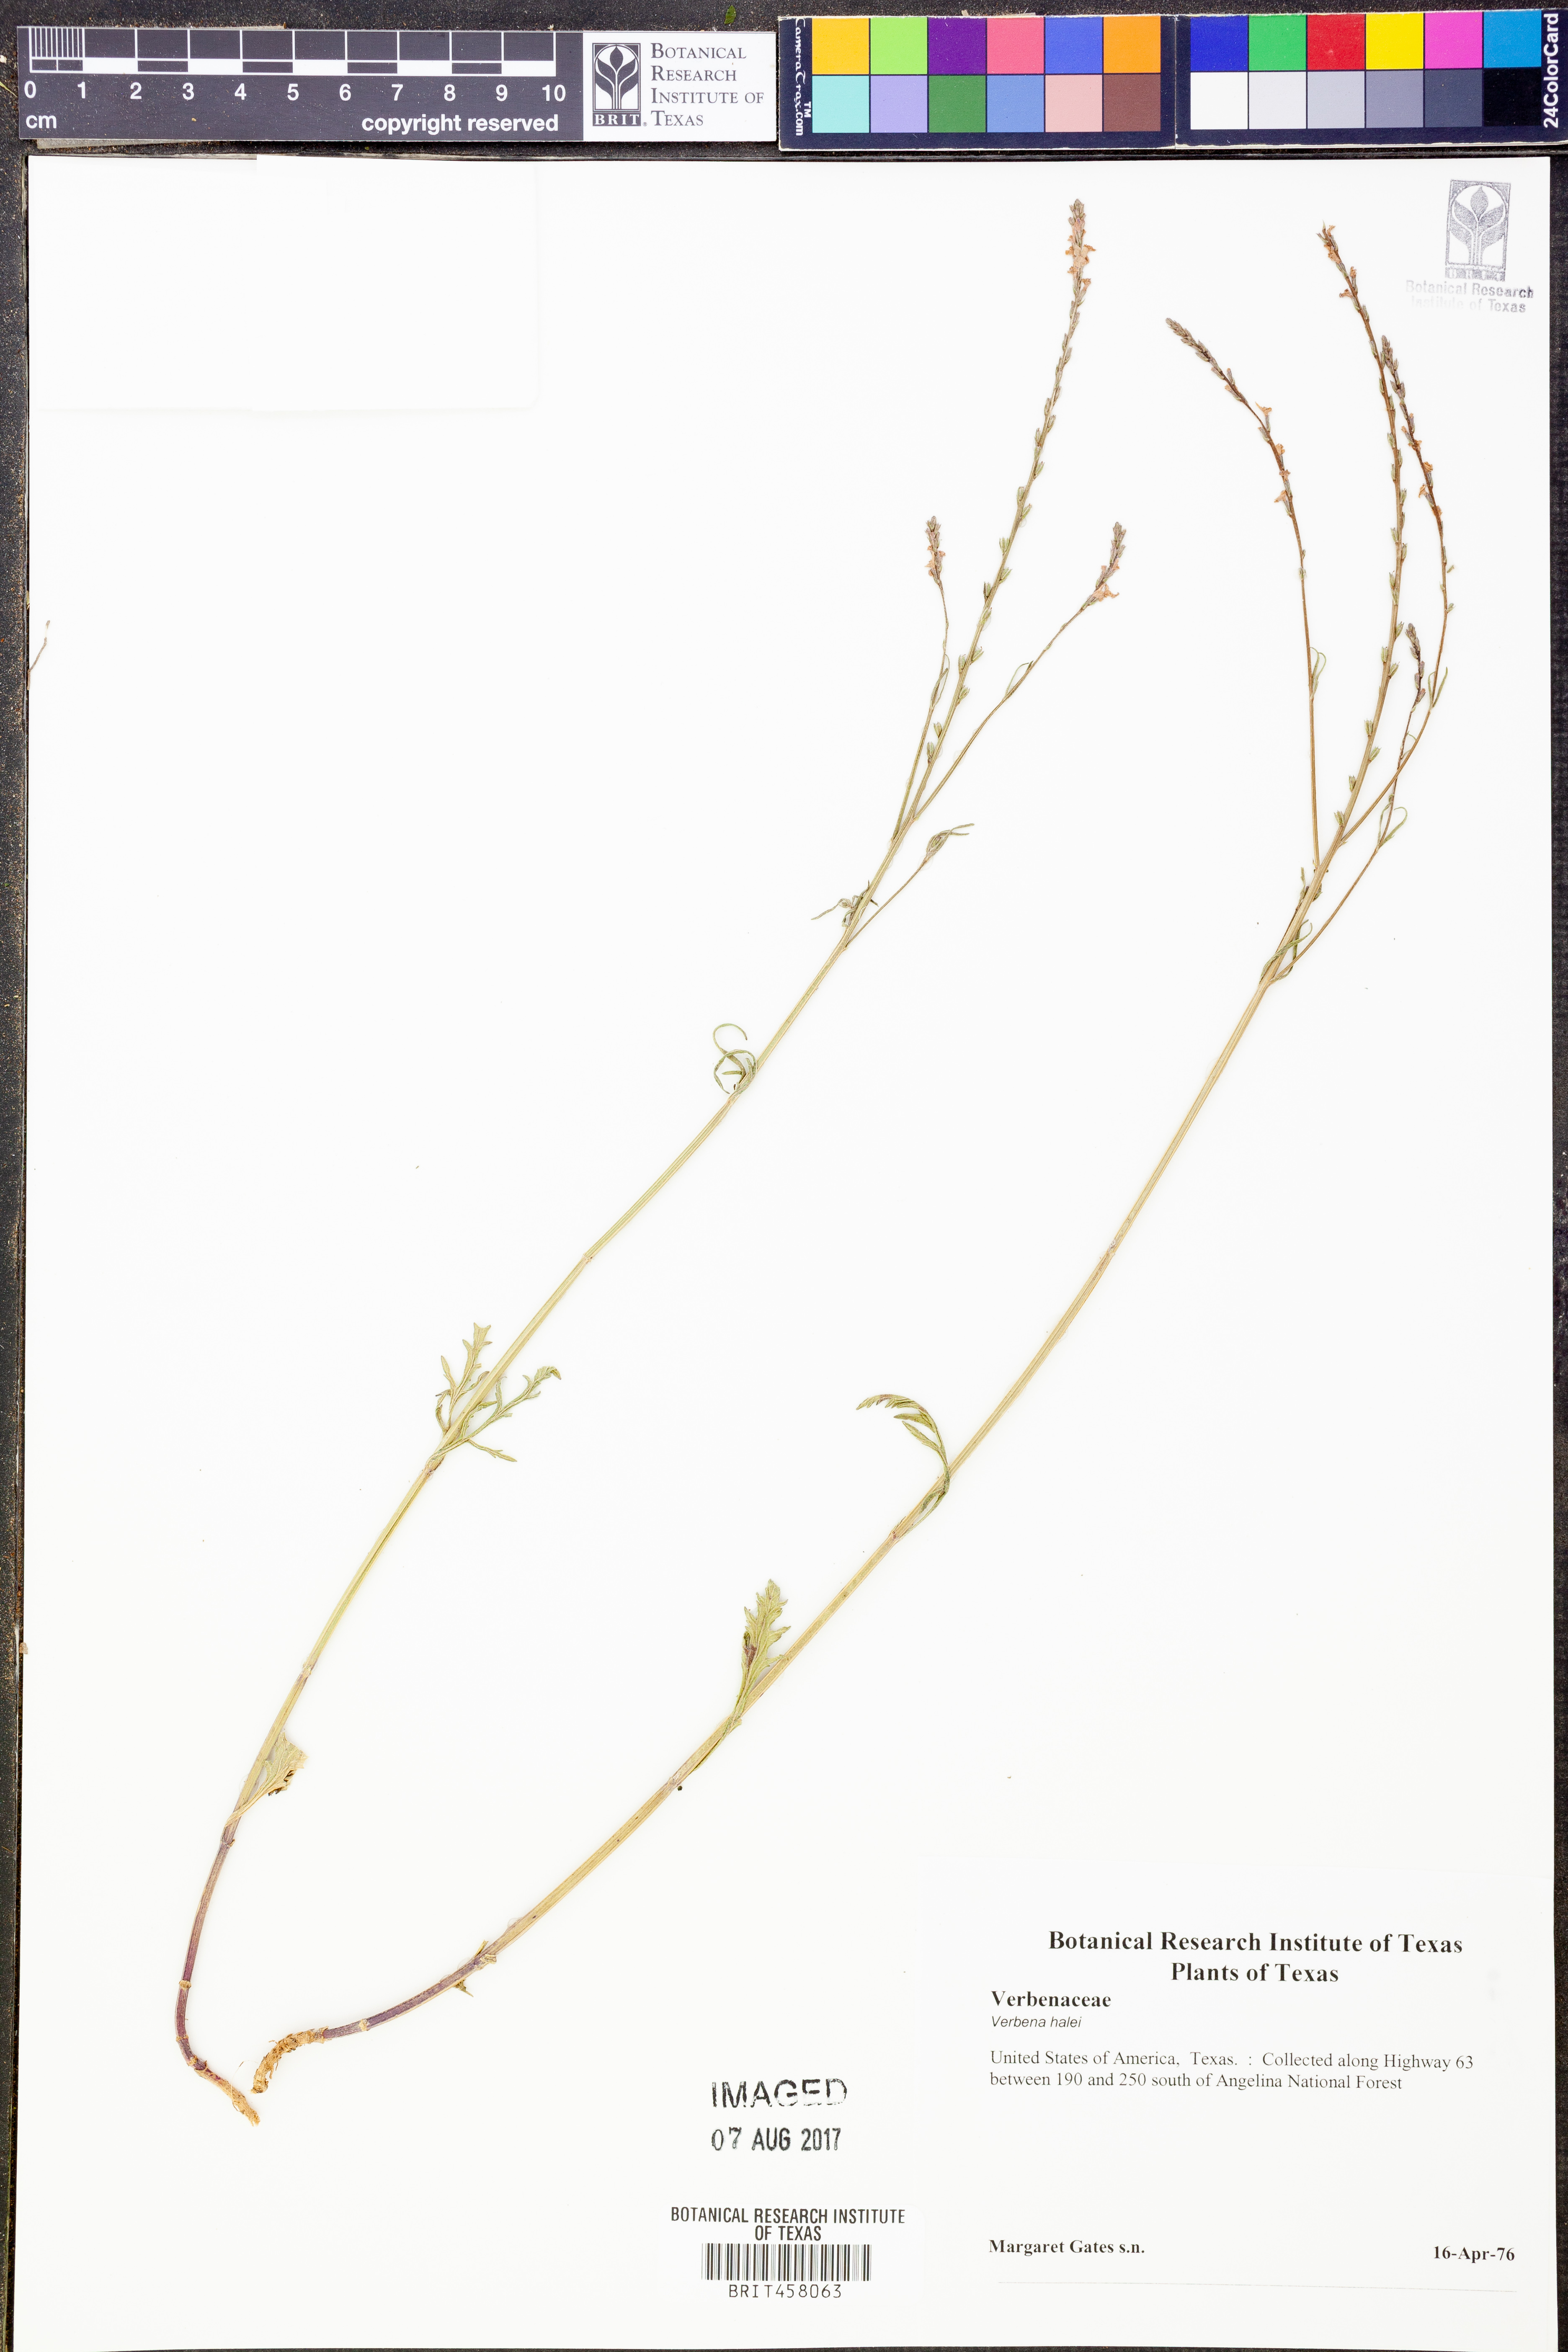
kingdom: Plantae
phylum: Tracheophyta
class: Magnoliopsida
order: Lamiales
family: Verbenaceae
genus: Verbena
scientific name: Verbena halei
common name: Texas vervain
